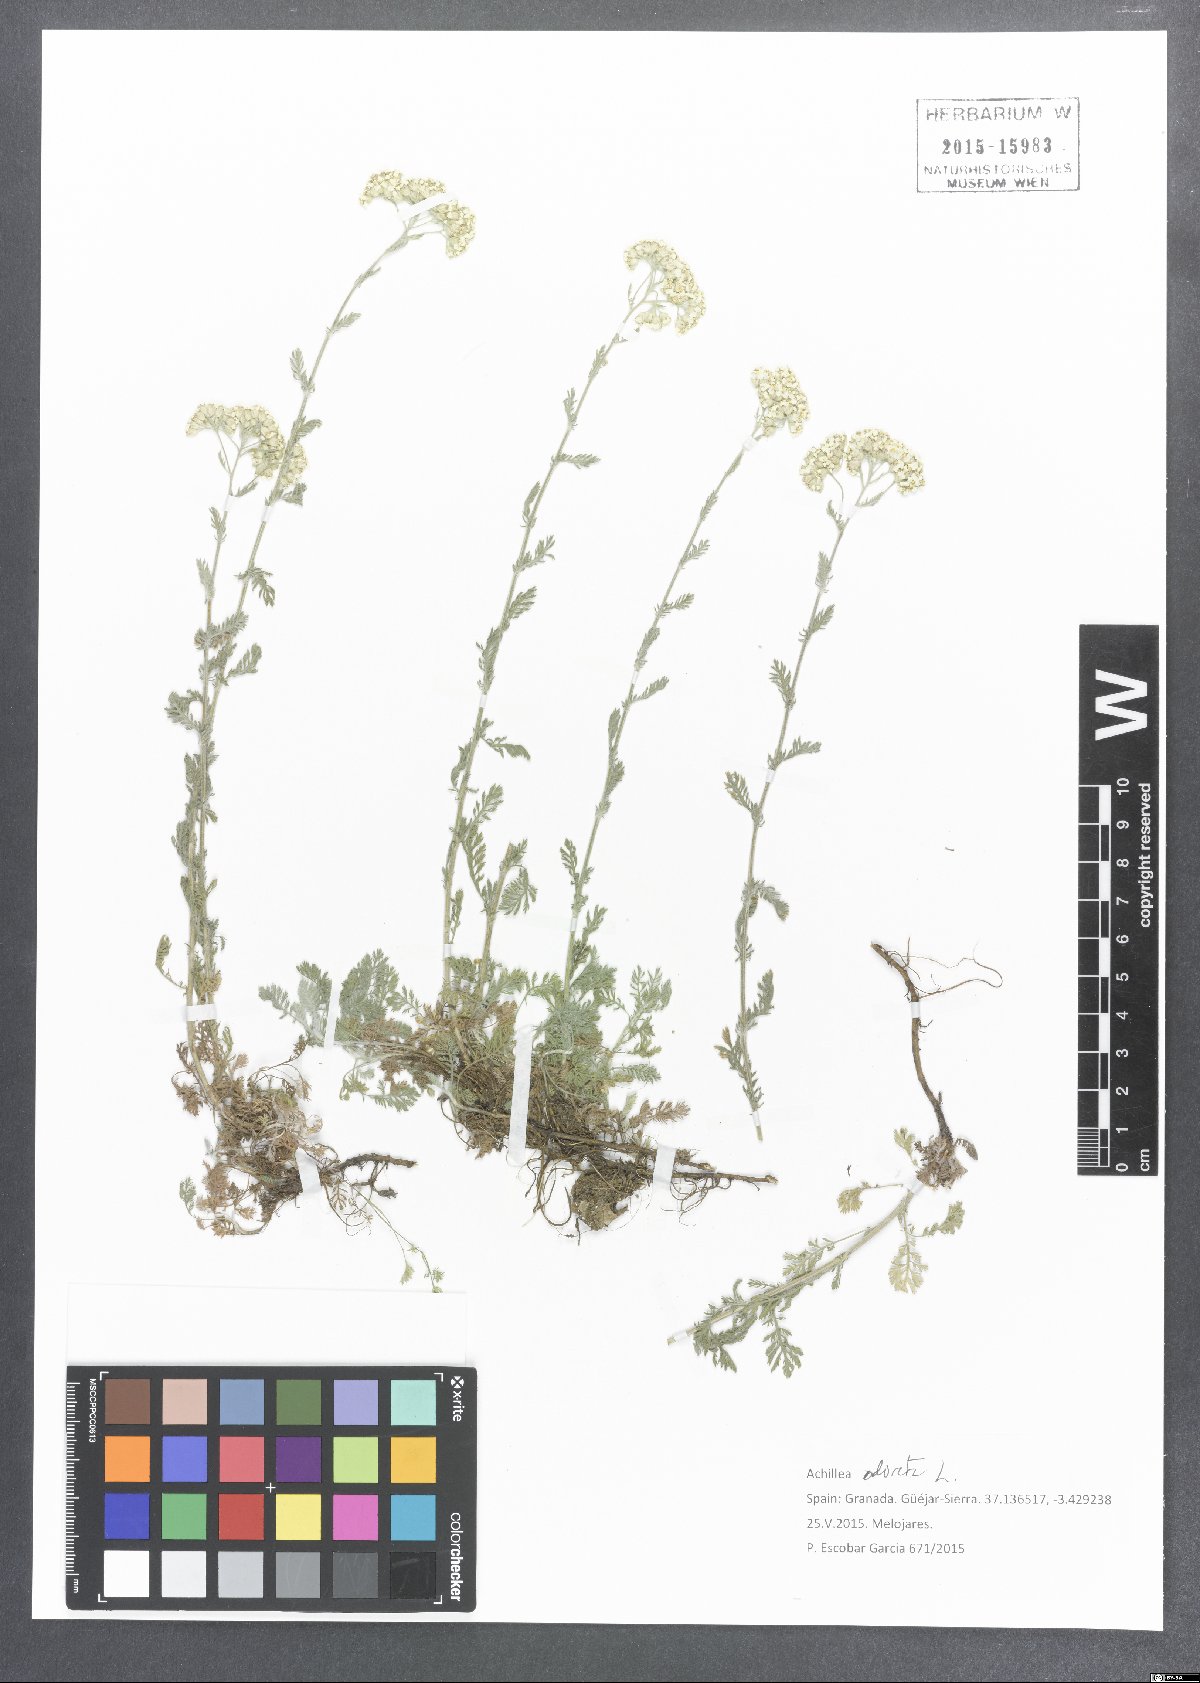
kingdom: Plantae
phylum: Tracheophyta
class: Magnoliopsida
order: Asterales
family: Asteraceae
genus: Achillea
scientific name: Achillea odorata
